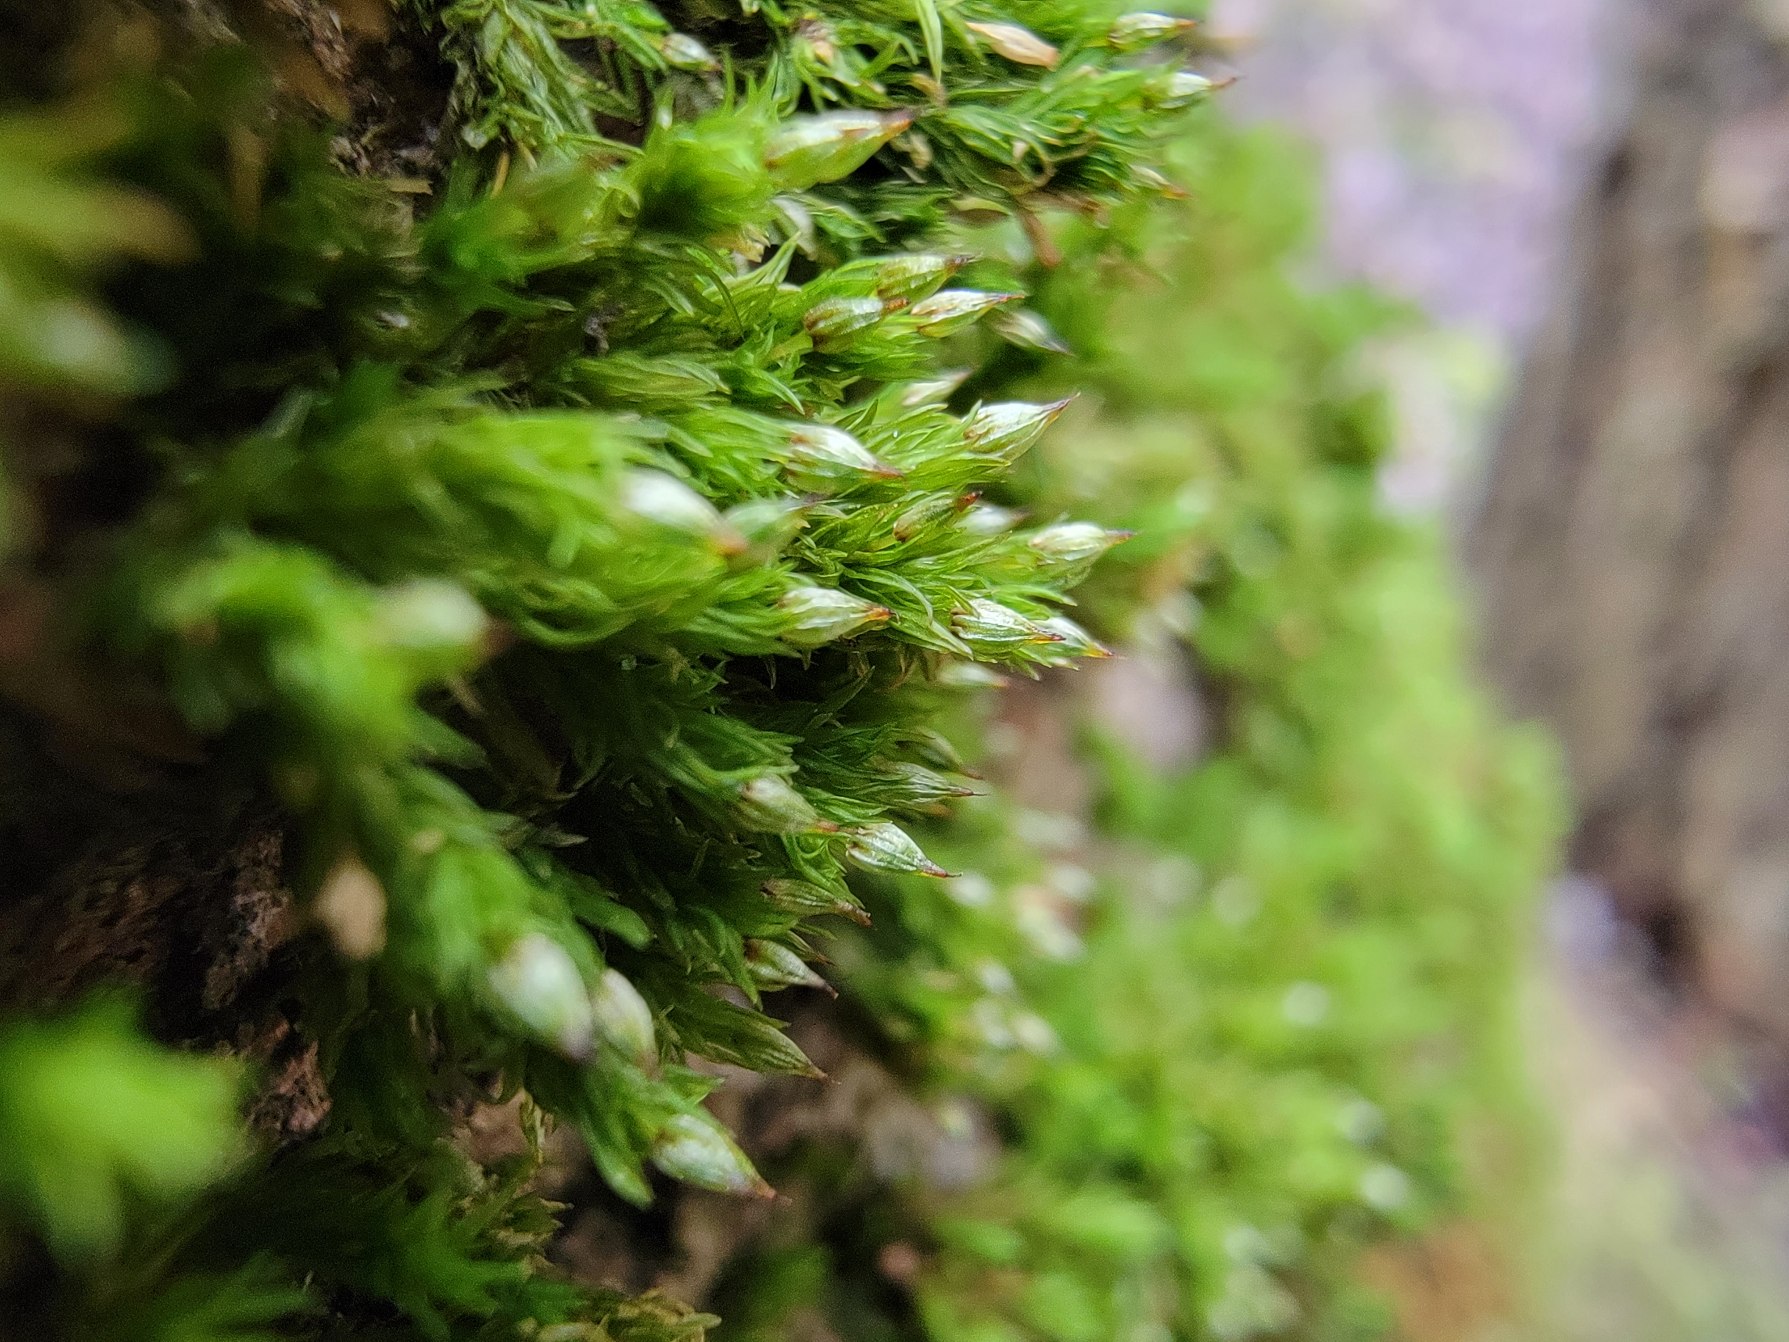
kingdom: Plantae
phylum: Bryophyta
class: Bryopsida
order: Orthotrichales
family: Orthotrichaceae
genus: Orthotrichum
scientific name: Orthotrichum pulchellum
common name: Smuk furehætte
